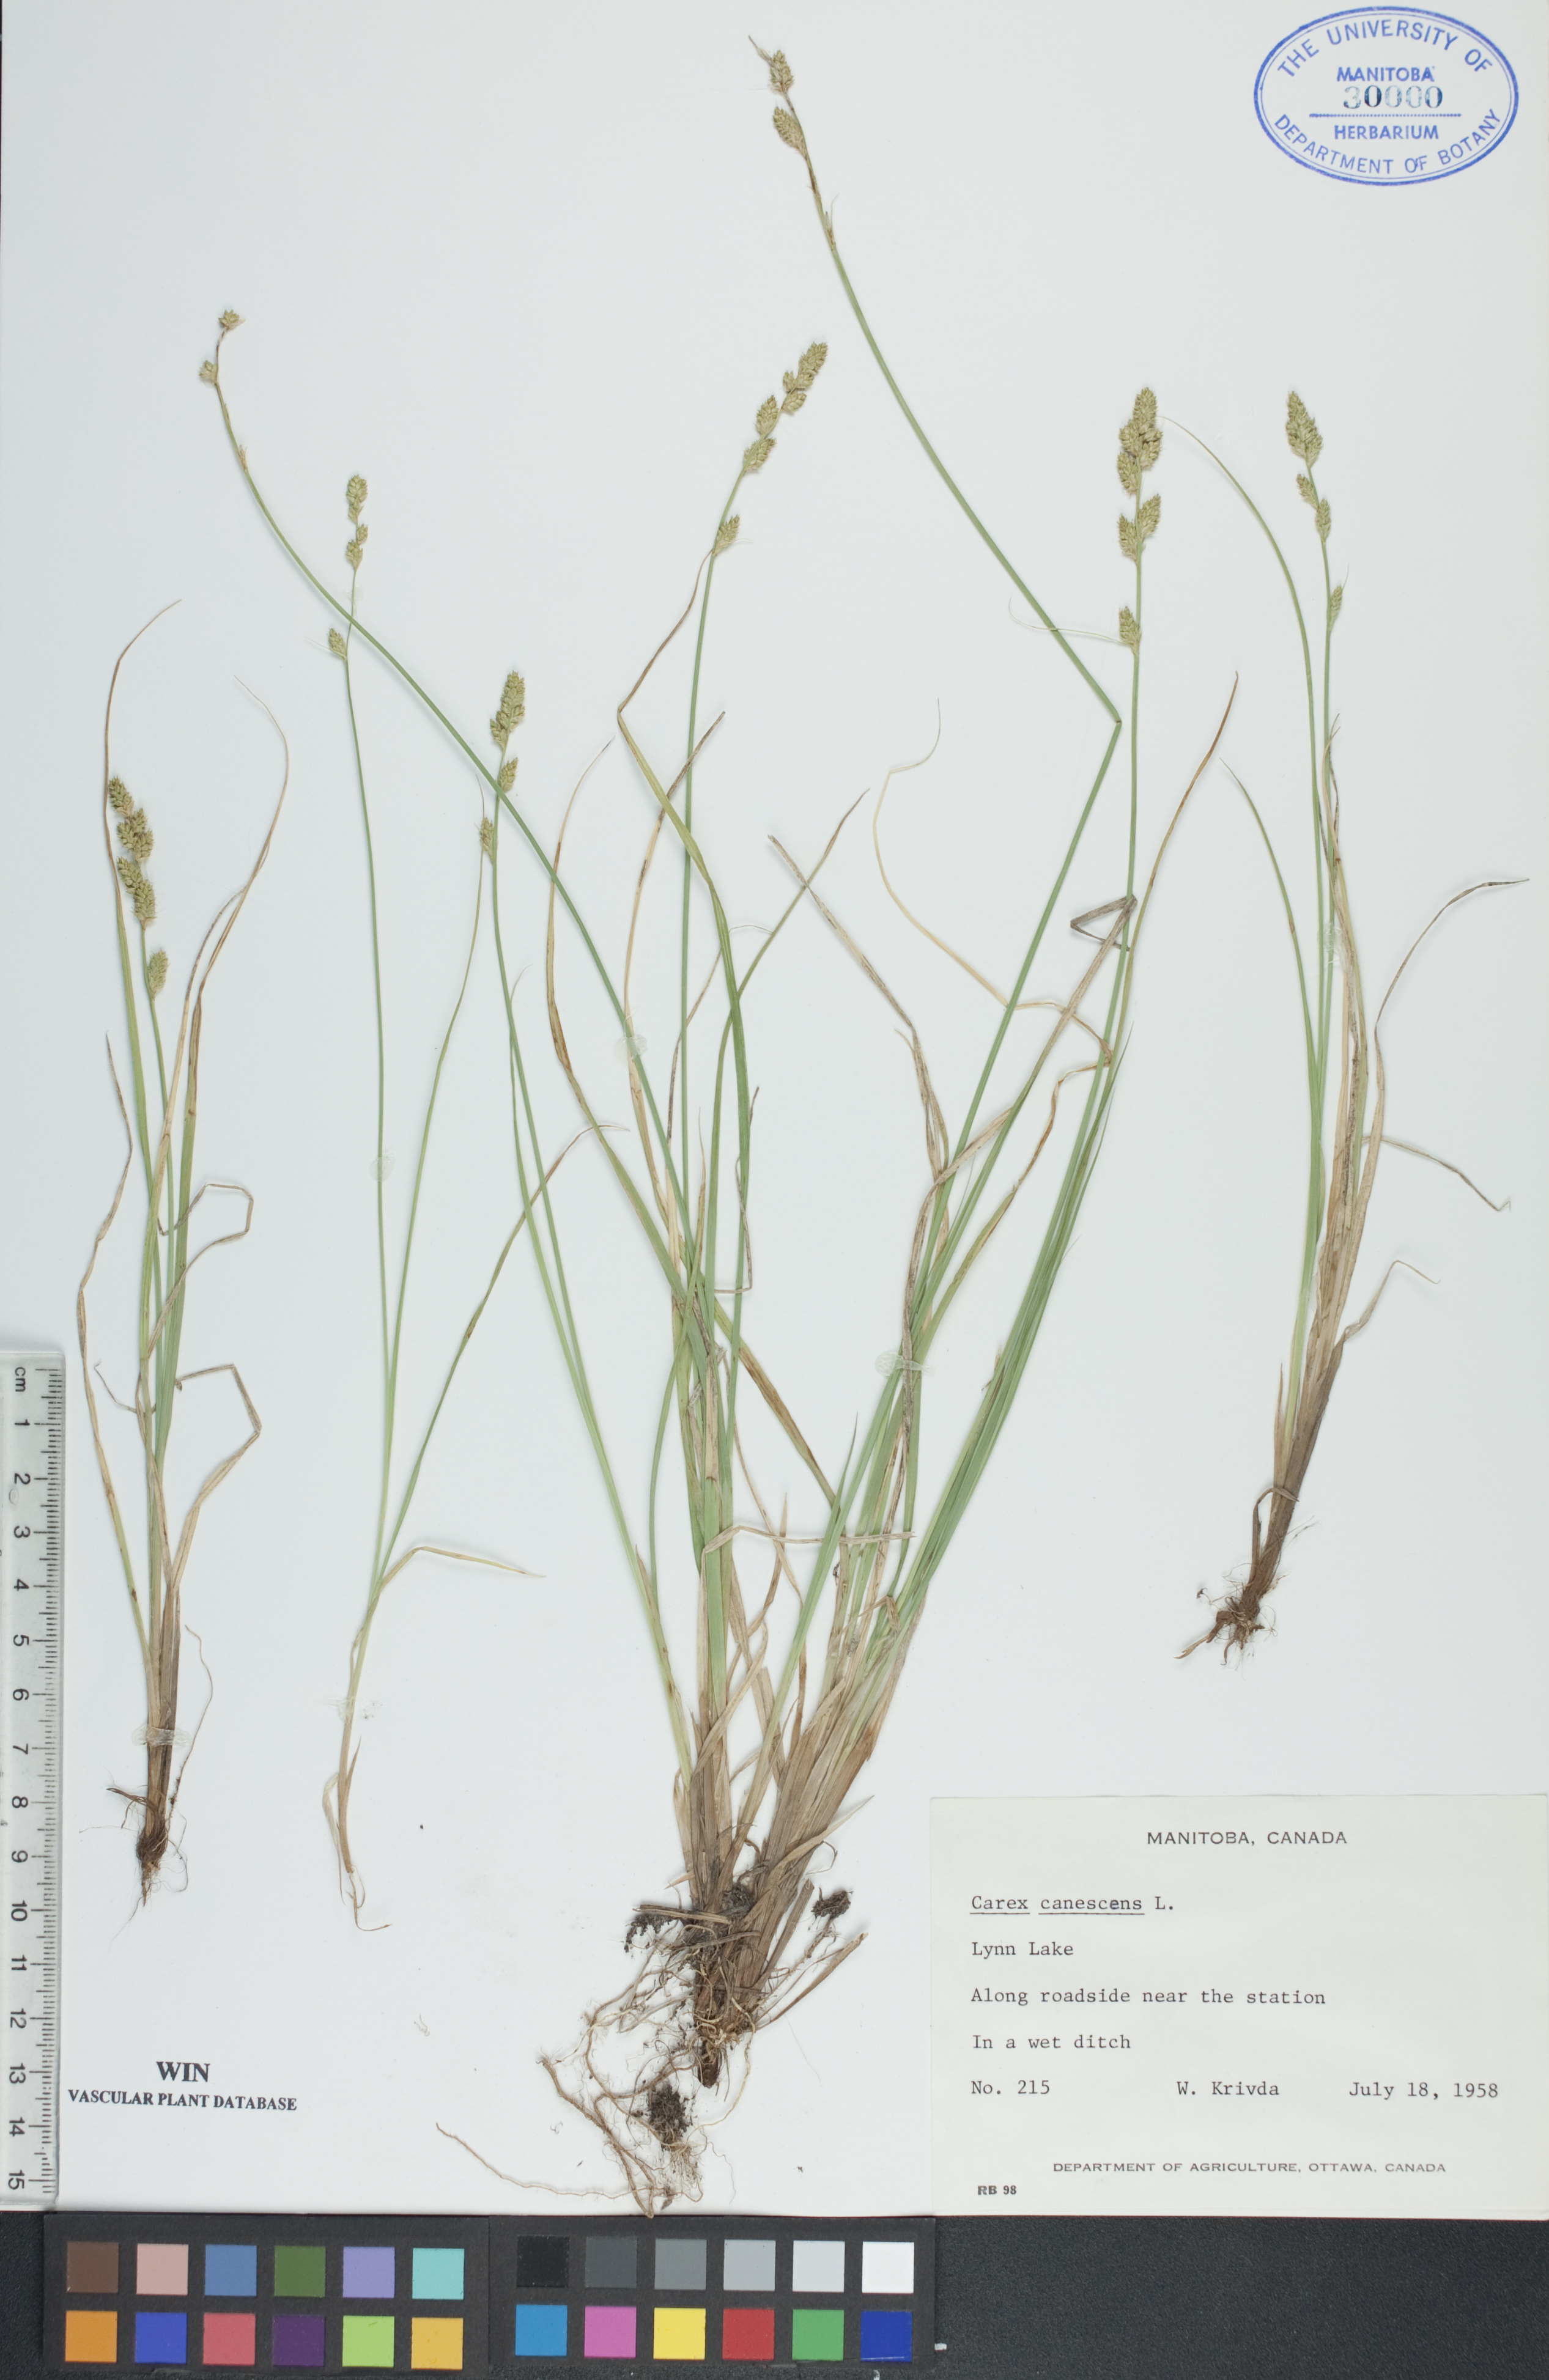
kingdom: Plantae
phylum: Tracheophyta
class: Liliopsida
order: Poales
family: Cyperaceae
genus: Carex
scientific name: Carex canescens
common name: White sedge
